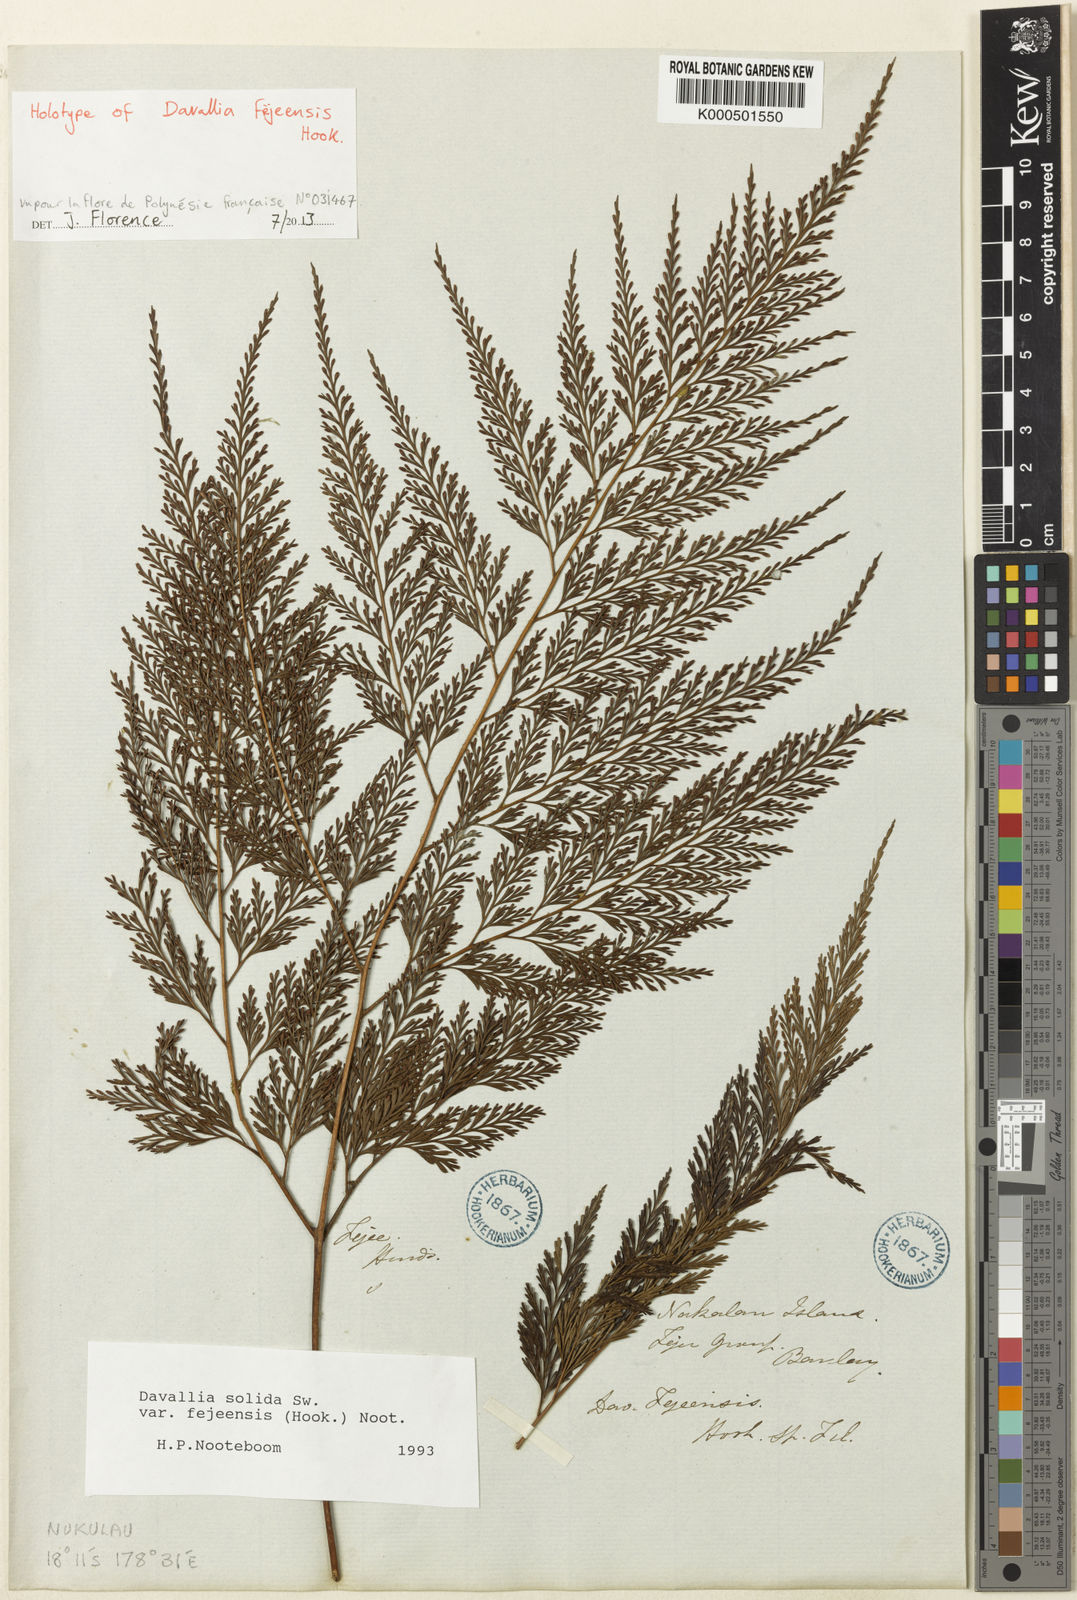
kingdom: Plantae
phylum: Tracheophyta
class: Polypodiopsida
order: Polypodiales
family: Davalliaceae
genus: Davallia
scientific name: Davallia fejeensis
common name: Lacy hare's-foot fern
